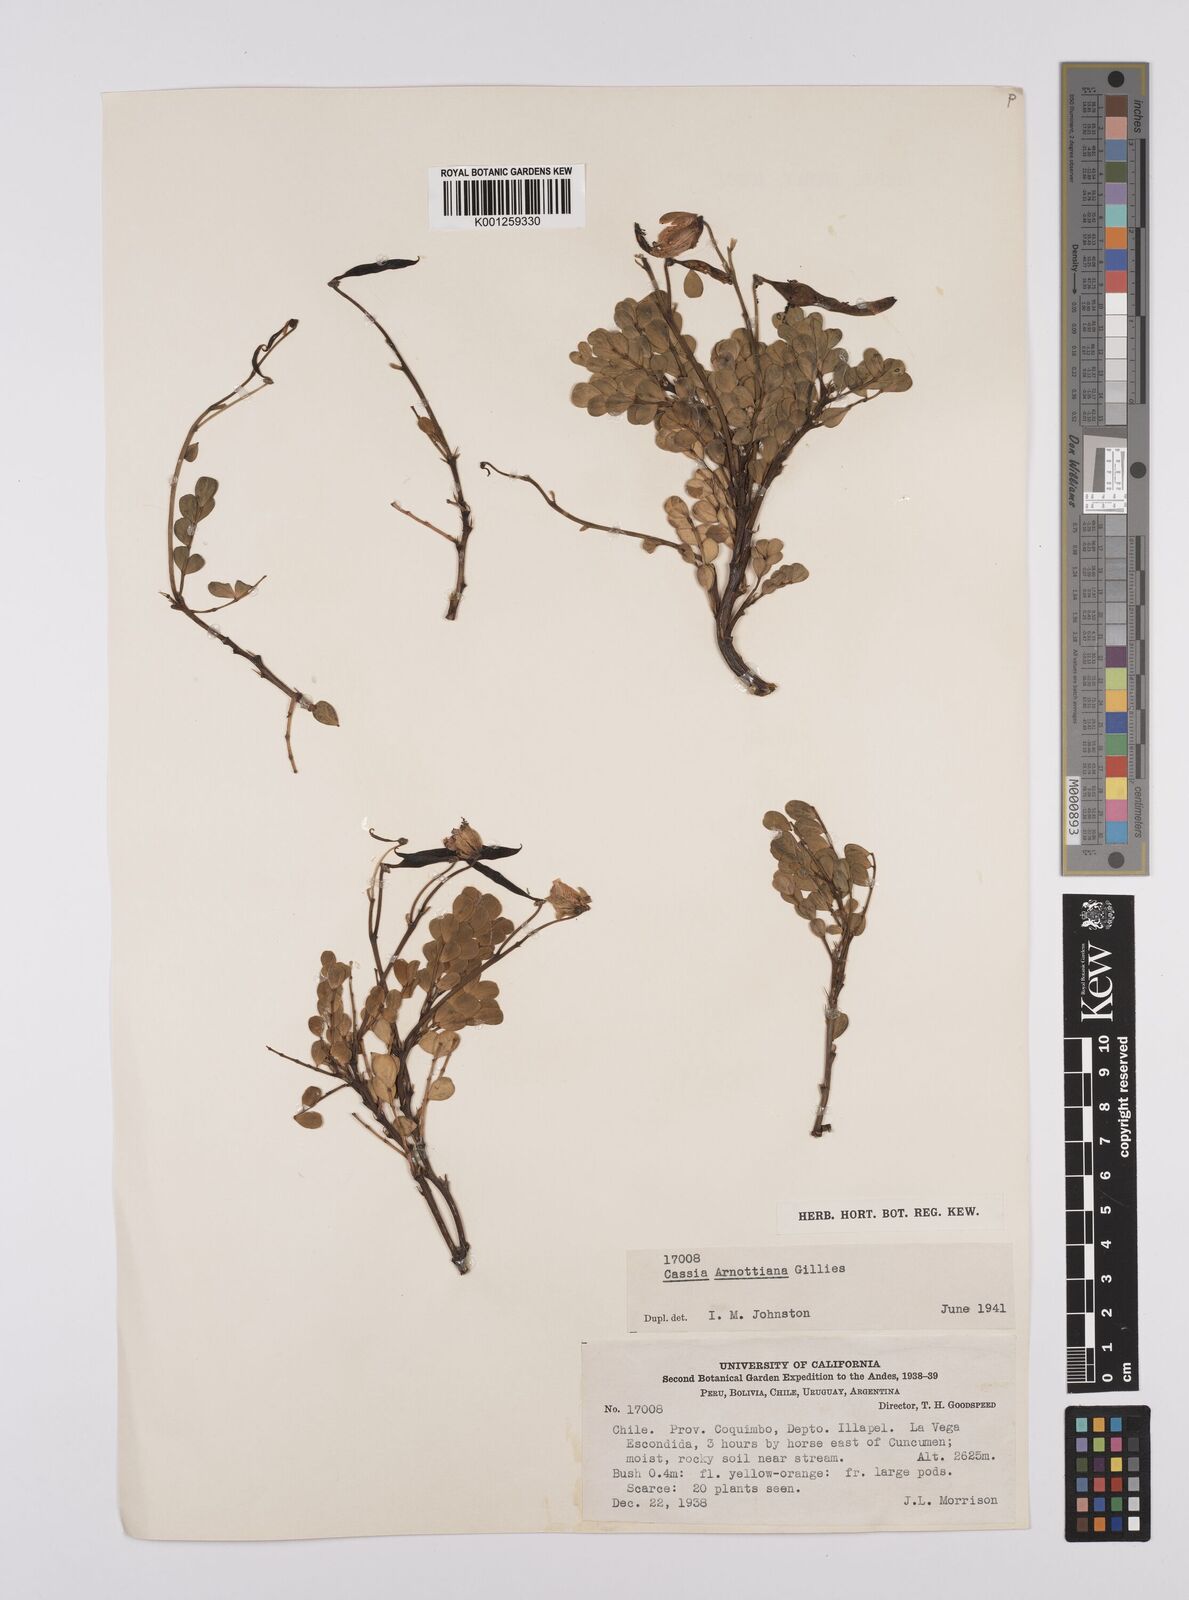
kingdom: Plantae
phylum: Tracheophyta
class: Magnoliopsida
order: Fabales
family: Fabaceae
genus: Senna
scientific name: Senna arnottiana
